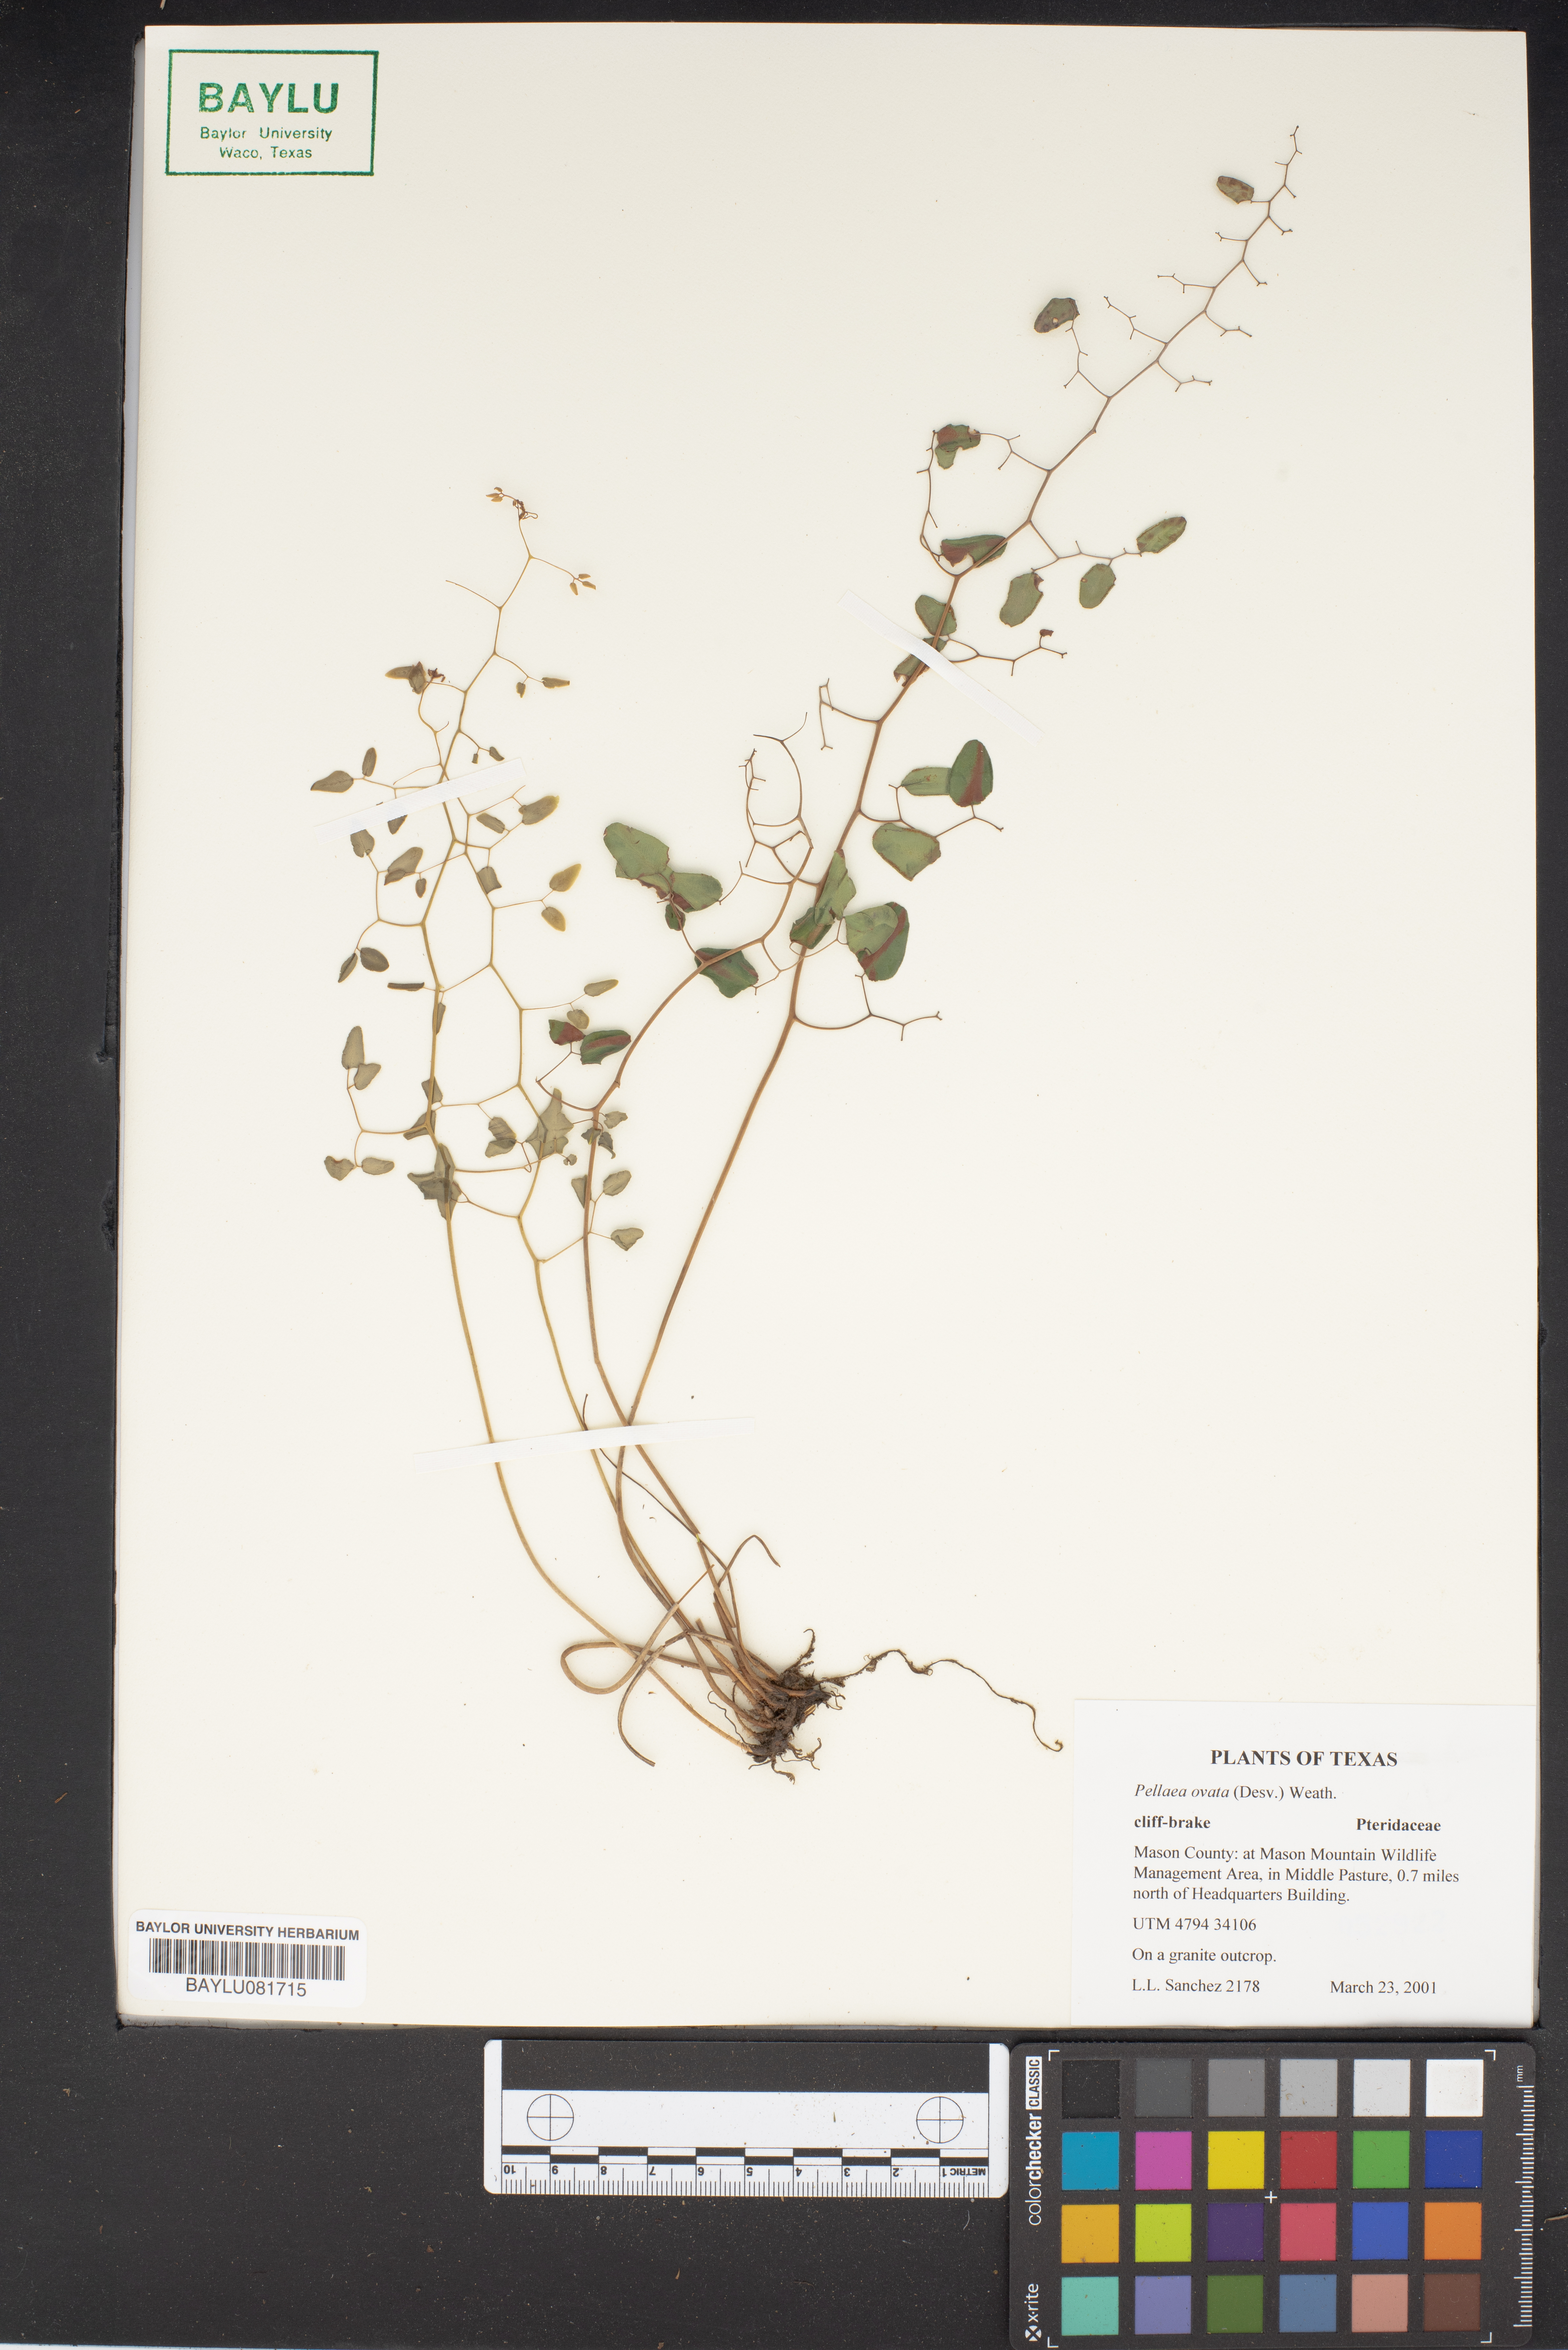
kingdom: Plantae
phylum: Tracheophyta
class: Polypodiopsida
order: Polypodiales
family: Pteridaceae
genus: Pellaea
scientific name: Pellaea ovata
